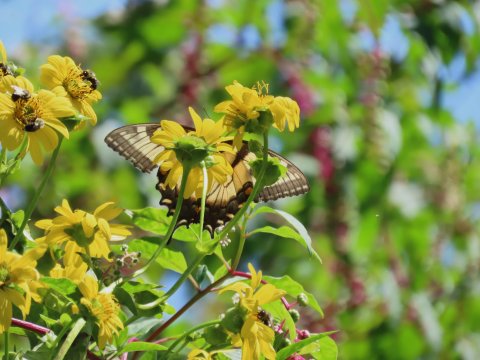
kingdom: Animalia
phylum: Arthropoda
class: Insecta
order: Lepidoptera
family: Papilionidae
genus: Pterourus
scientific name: Pterourus glaucus
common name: Eastern Tiger Swallowtail
